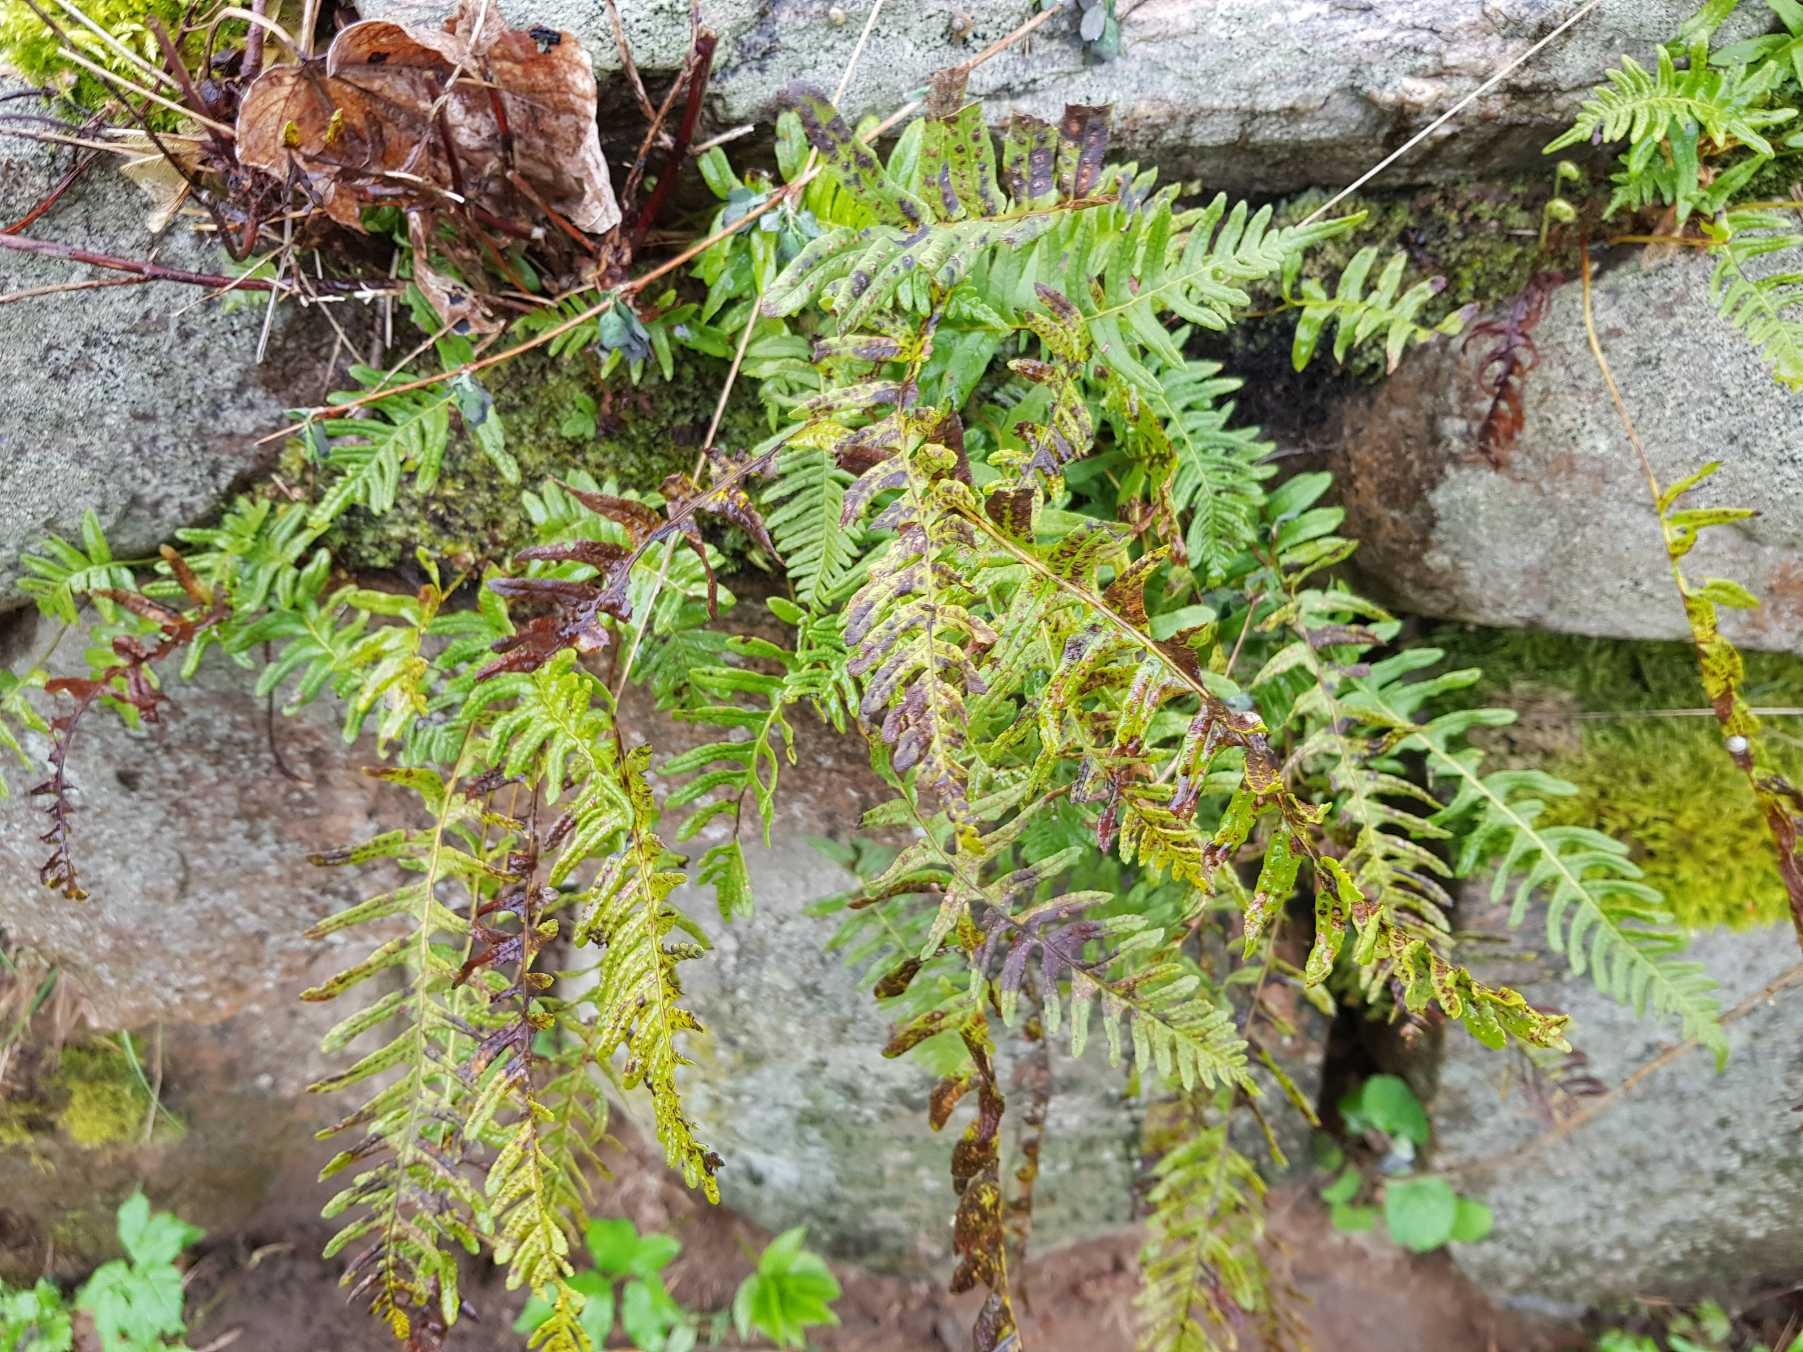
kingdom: Plantae
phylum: Tracheophyta
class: Polypodiopsida
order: Polypodiales
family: Polypodiaceae
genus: Polypodium
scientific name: Polypodium vulgare
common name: Almindelig engelsød
